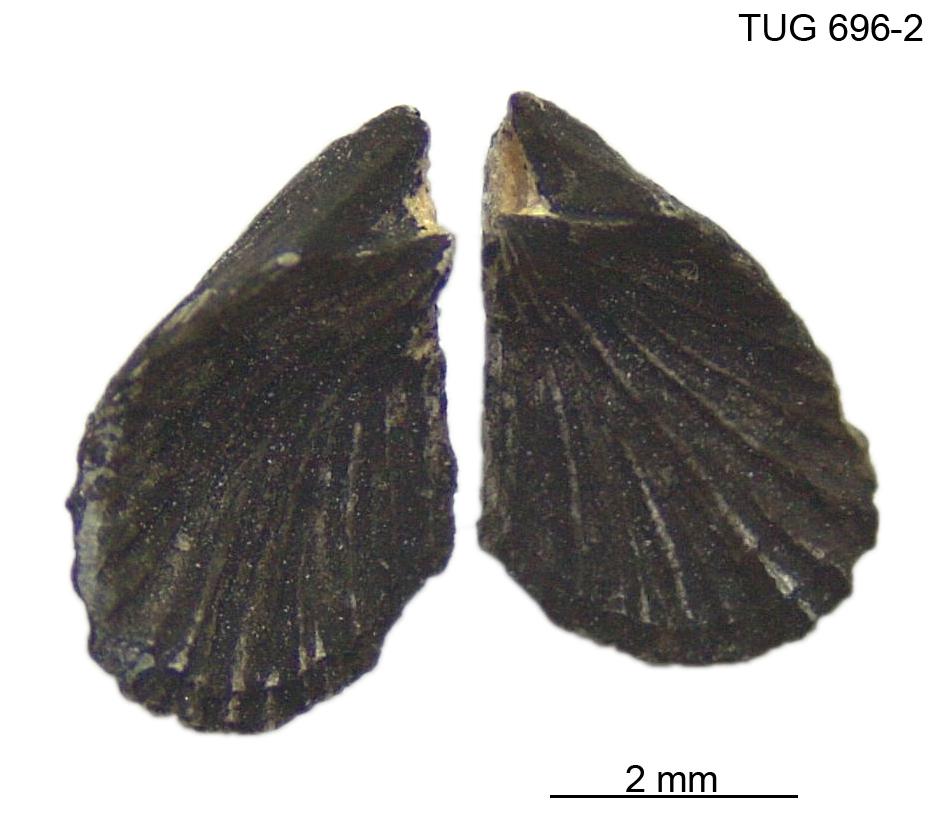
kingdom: Animalia
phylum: Brachiopoda
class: Rhynchonellata
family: Dicoelosiidae
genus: Dicoelosia
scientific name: Dicoelosia anticipata
